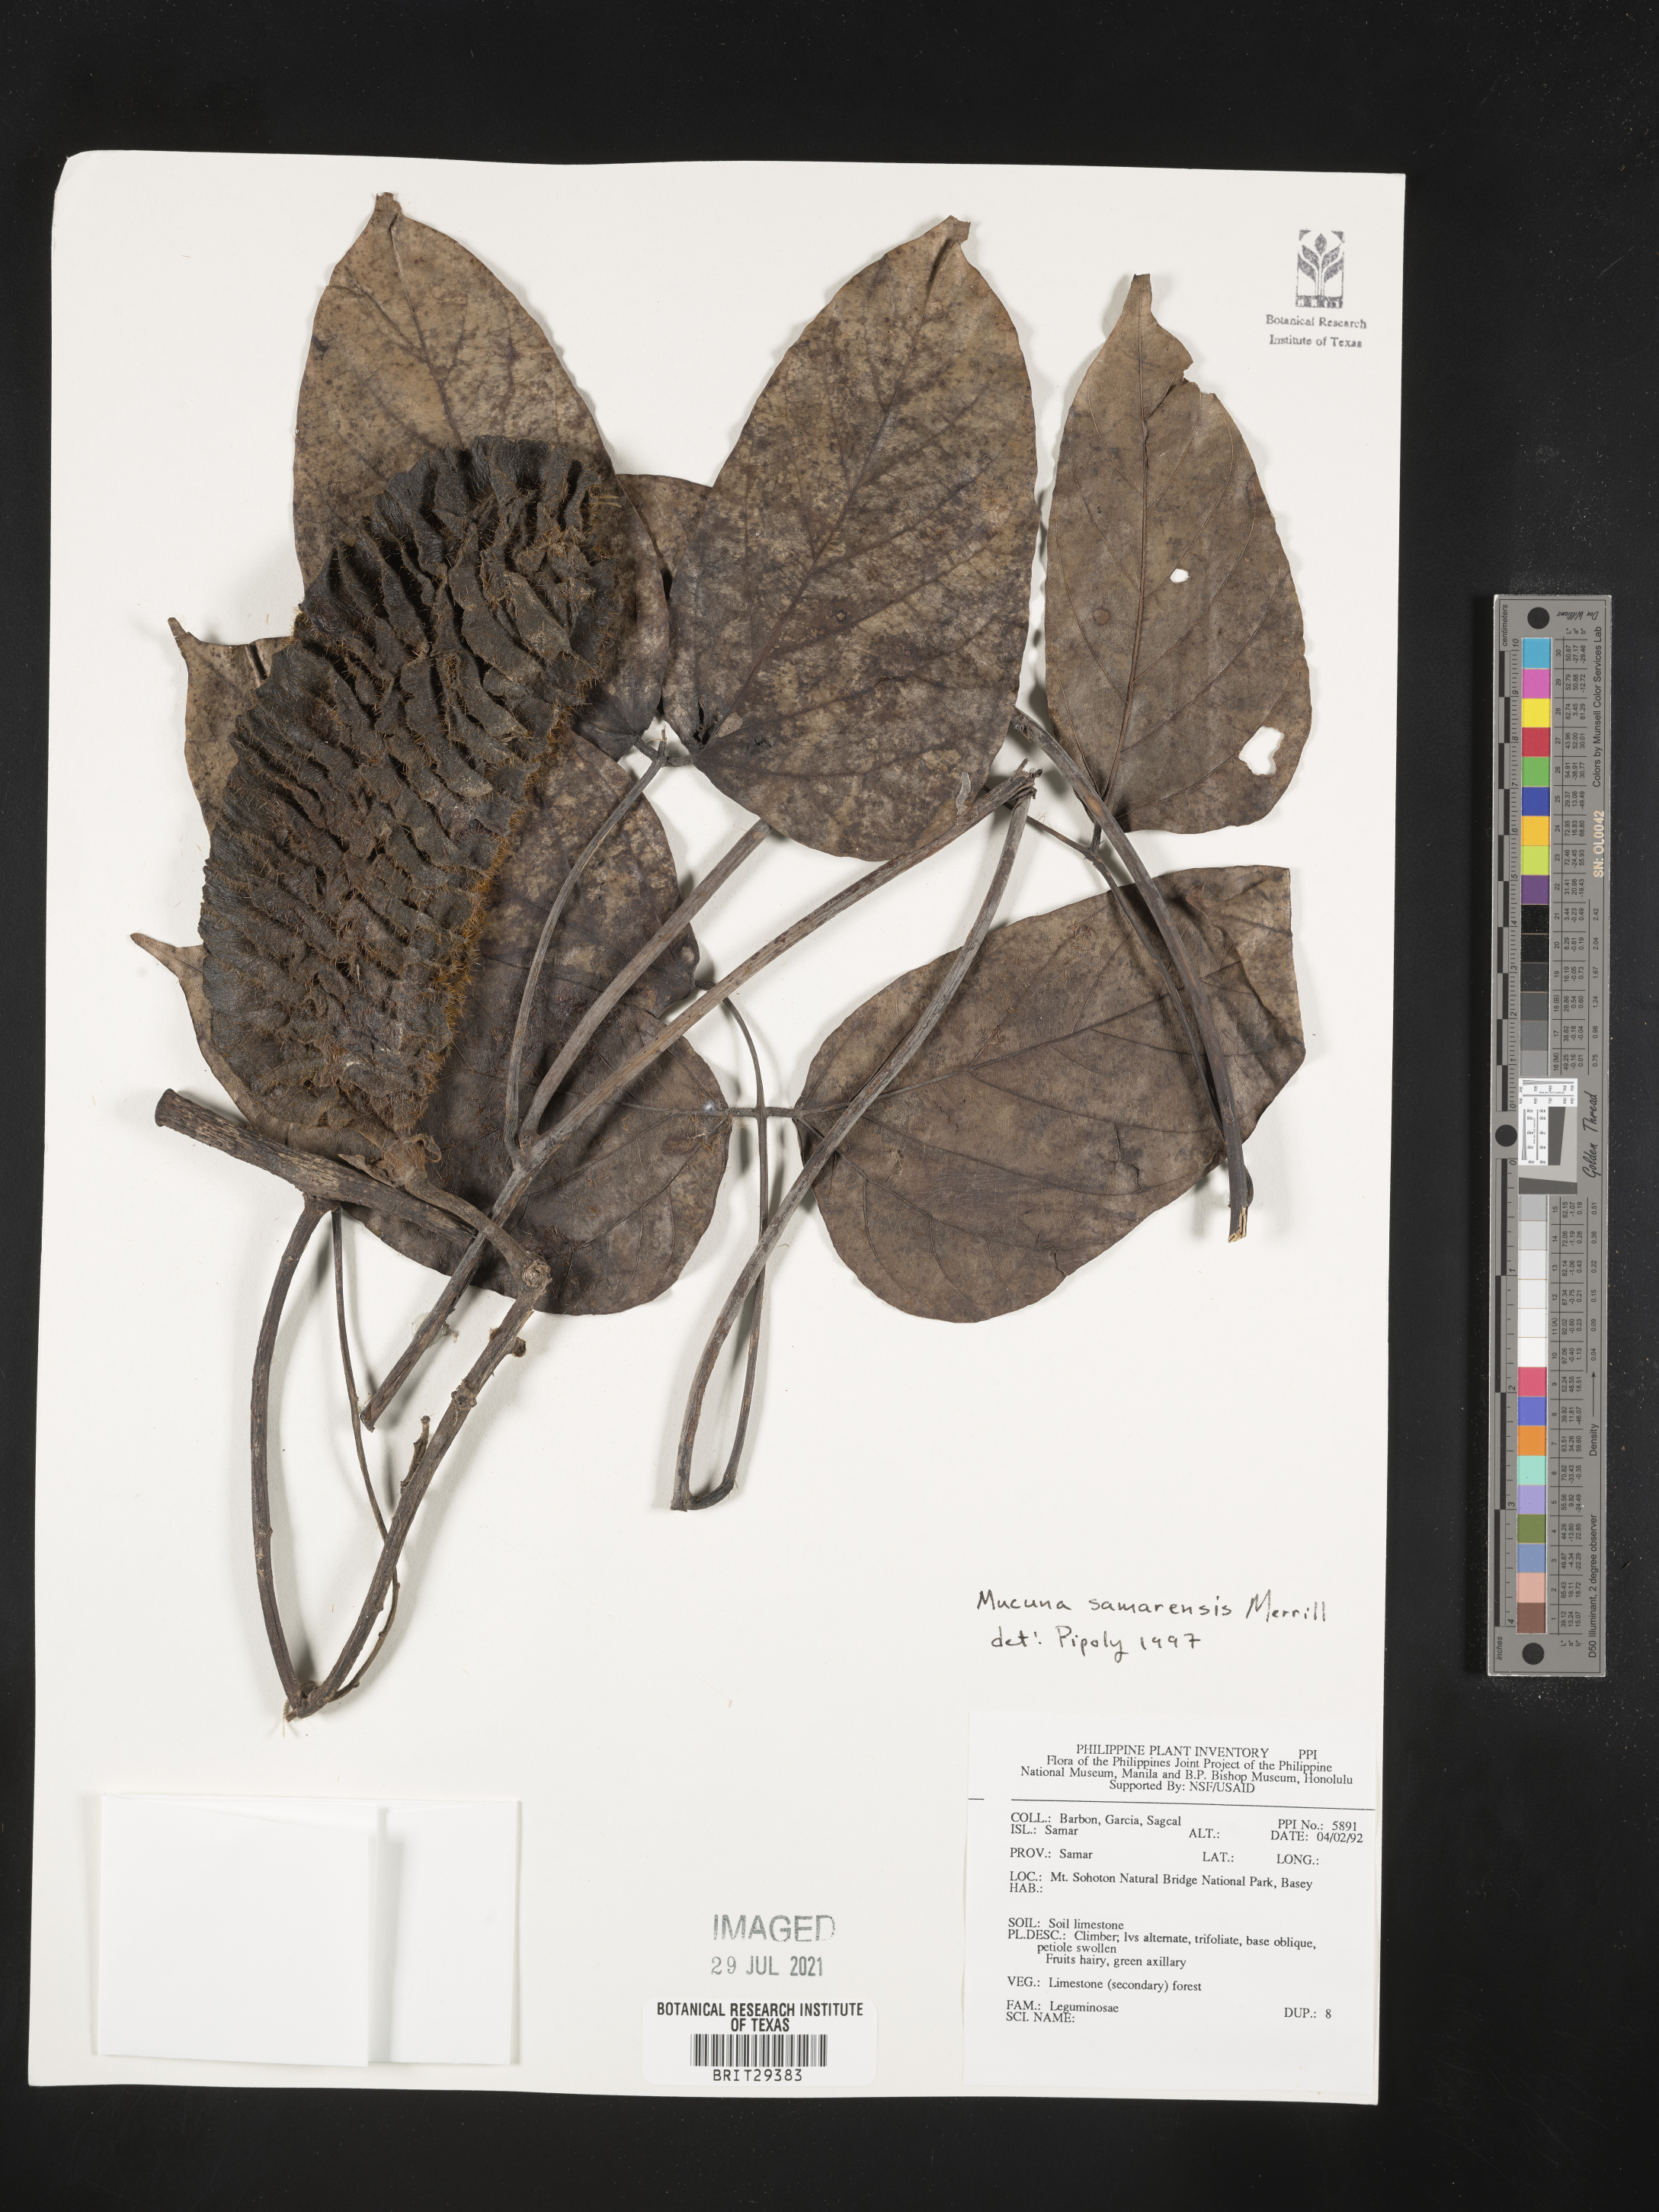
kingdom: Plantae
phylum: Tracheophyta
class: Magnoliopsida
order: Fabales
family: Fabaceae
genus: Mucuna
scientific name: Mucuna samarensis
